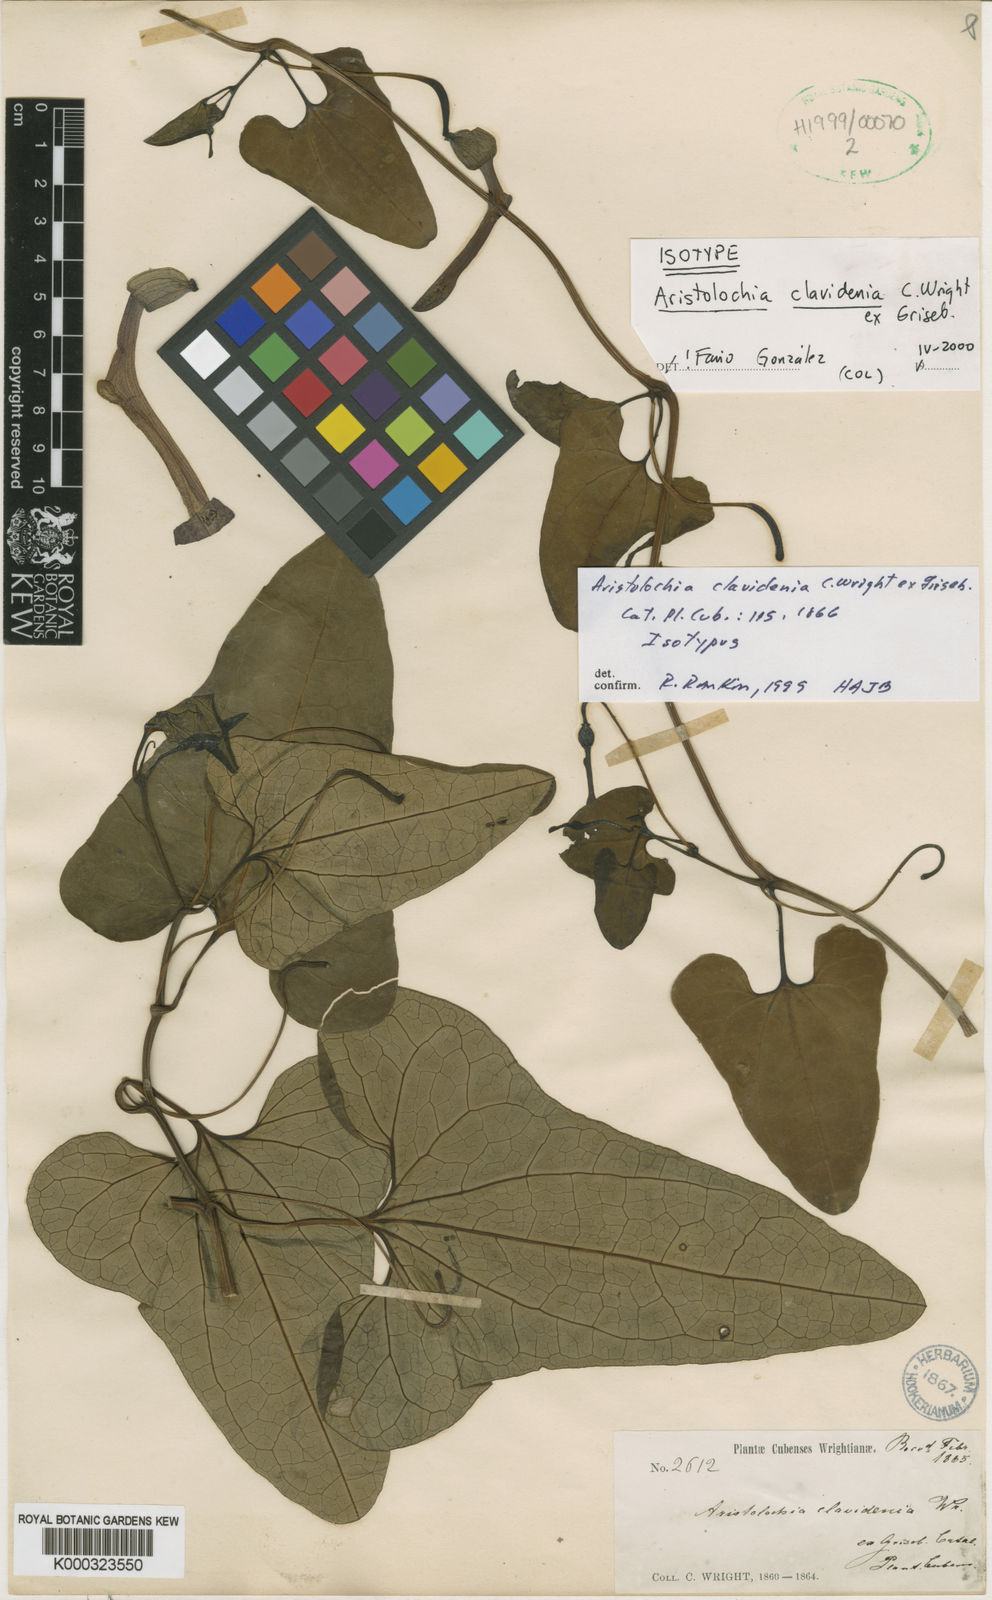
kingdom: Plantae
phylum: Tracheophyta
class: Magnoliopsida
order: Piperales
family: Aristolochiaceae
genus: Aristolochia
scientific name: Aristolochia pilosa
